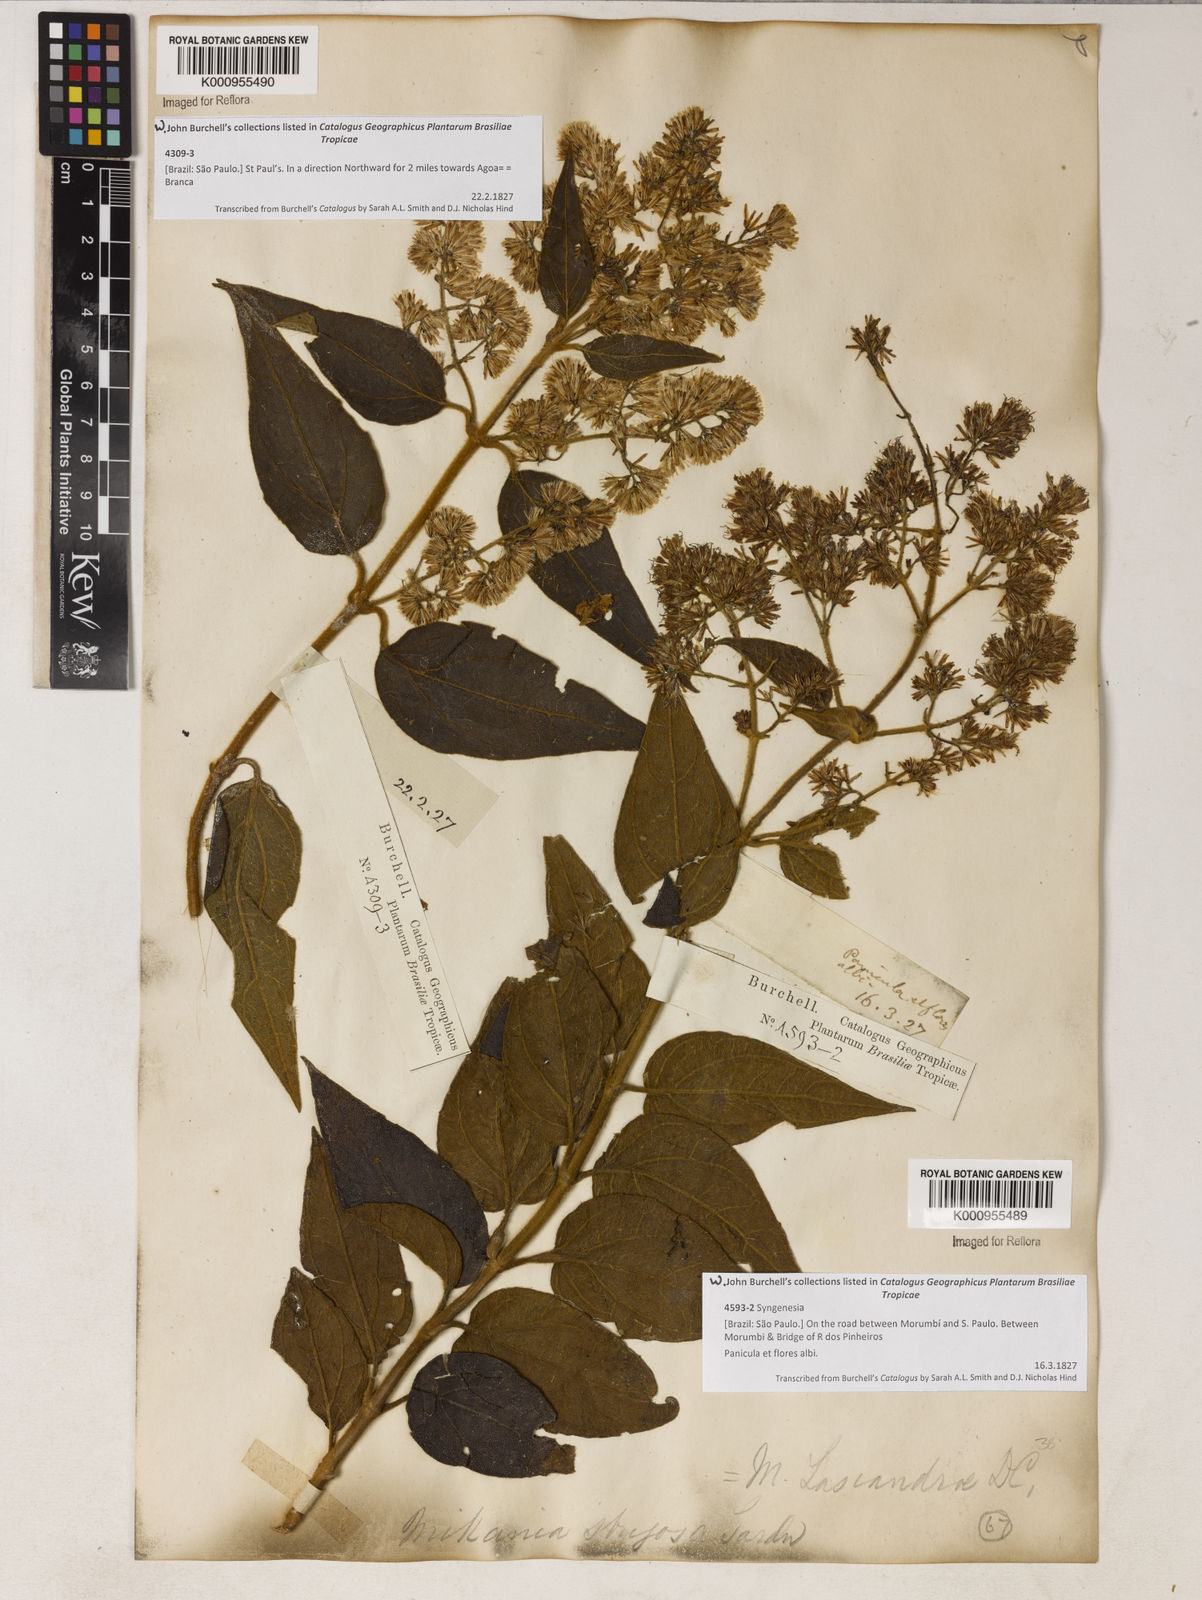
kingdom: Plantae
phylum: Tracheophyta
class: Magnoliopsida
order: Asterales
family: Asteraceae
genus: Mikania
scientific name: Mikania lasiandrae
